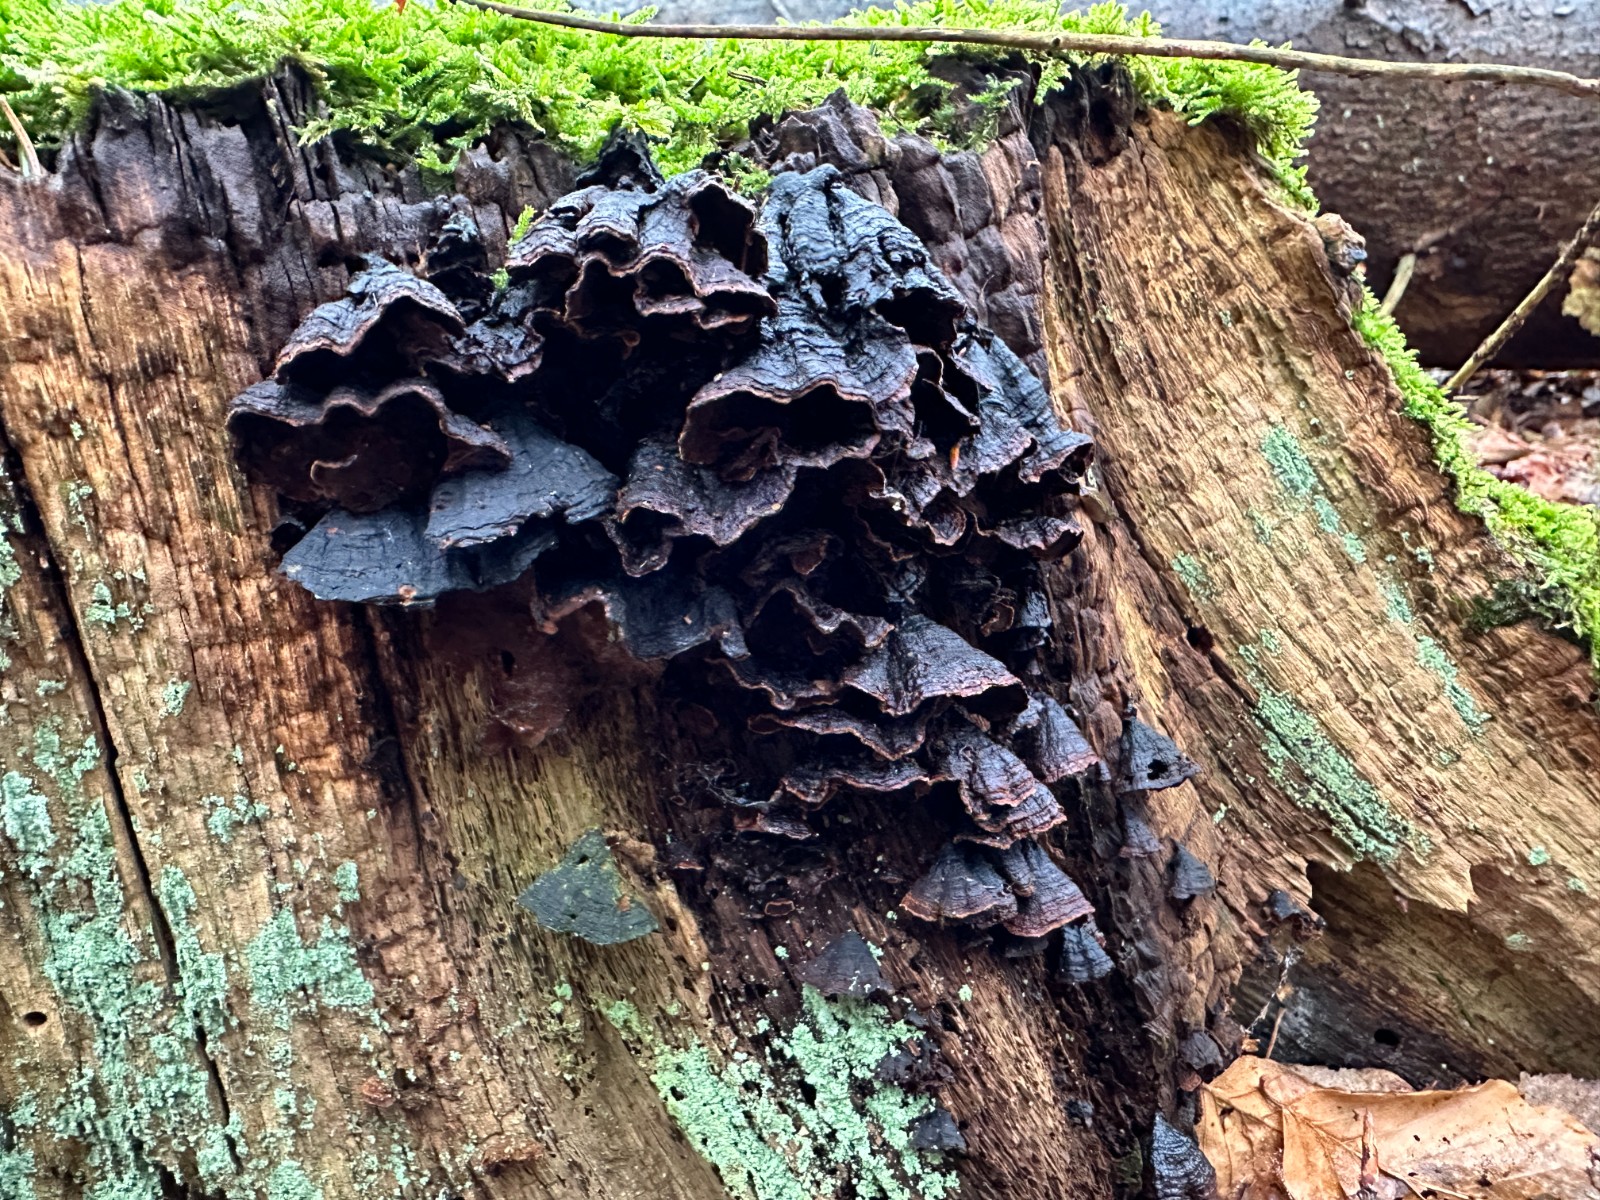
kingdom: Fungi
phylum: Basidiomycota
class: Agaricomycetes
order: Hymenochaetales
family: Hymenochaetaceae
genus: Hymenochaete
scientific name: Hymenochaete rubiginosa
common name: stiv ruslædersvamp
